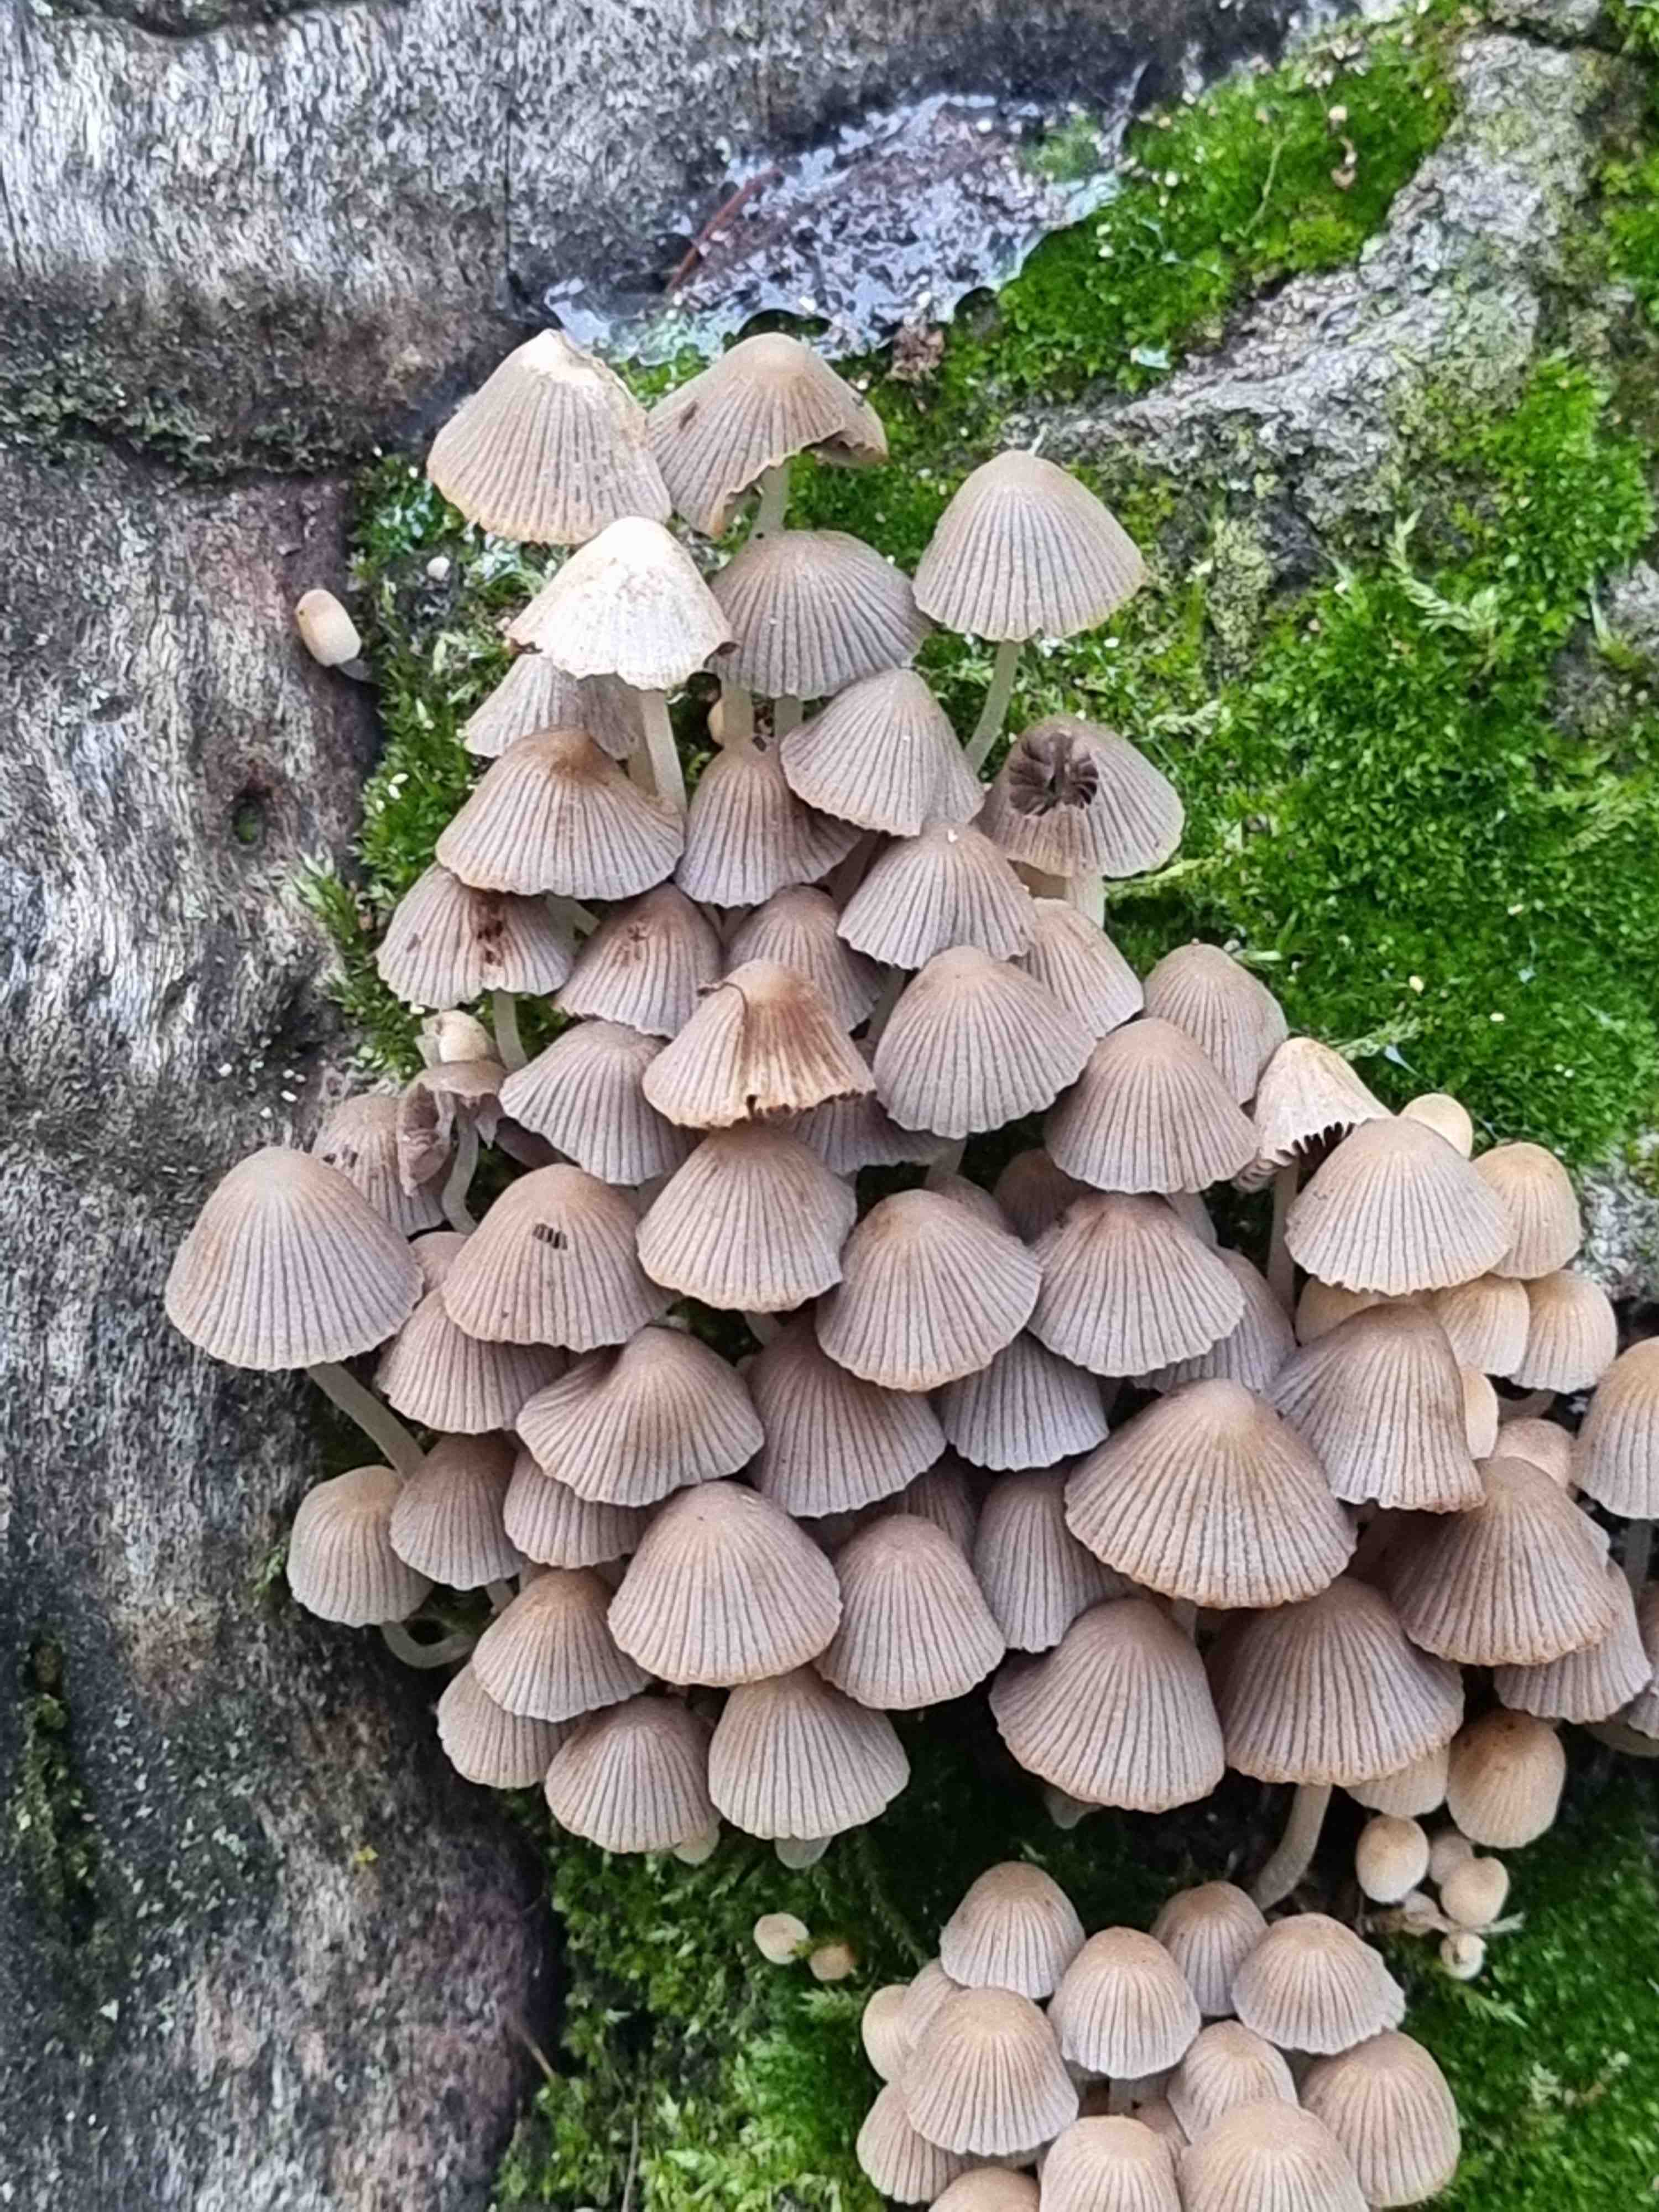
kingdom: Fungi
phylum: Basidiomycota
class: Agaricomycetes
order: Agaricales
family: Psathyrellaceae
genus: Coprinellus
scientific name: Coprinellus disseminatus
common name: bredsået blækhat
